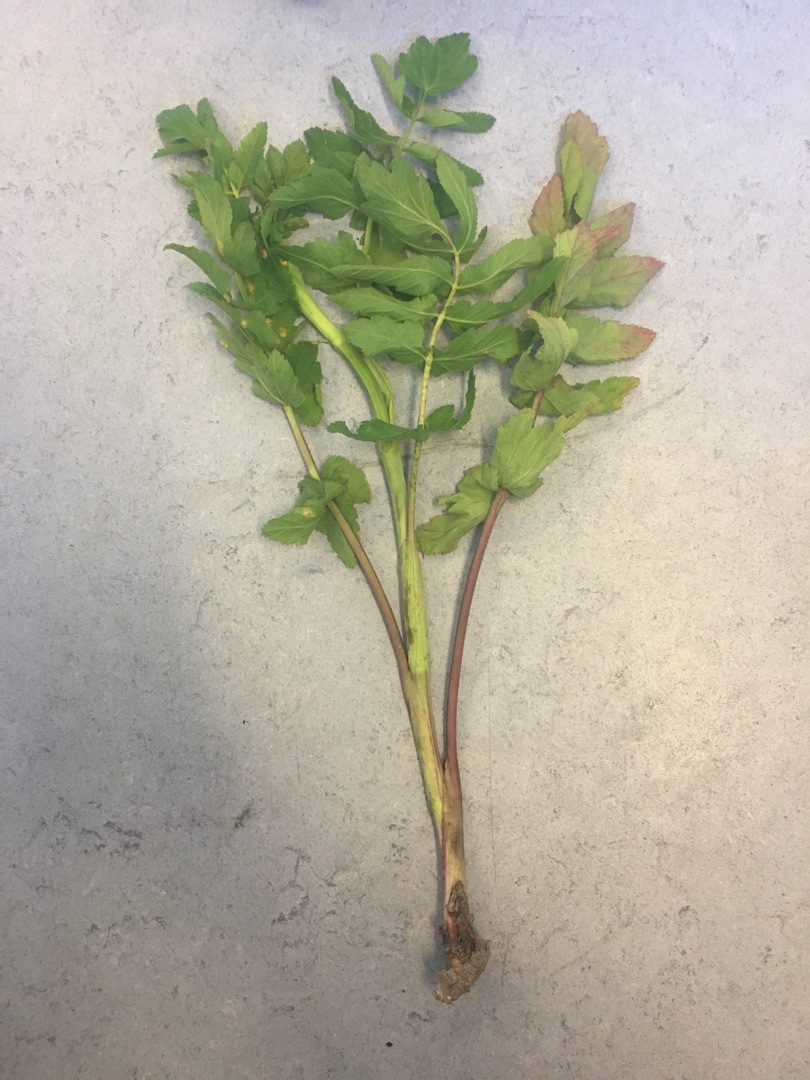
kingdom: Plantae
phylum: Tracheophyta
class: Magnoliopsida
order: Apiales
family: Apiaceae
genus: Pastinaca
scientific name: Pastinaca sativa
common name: Pastinak
